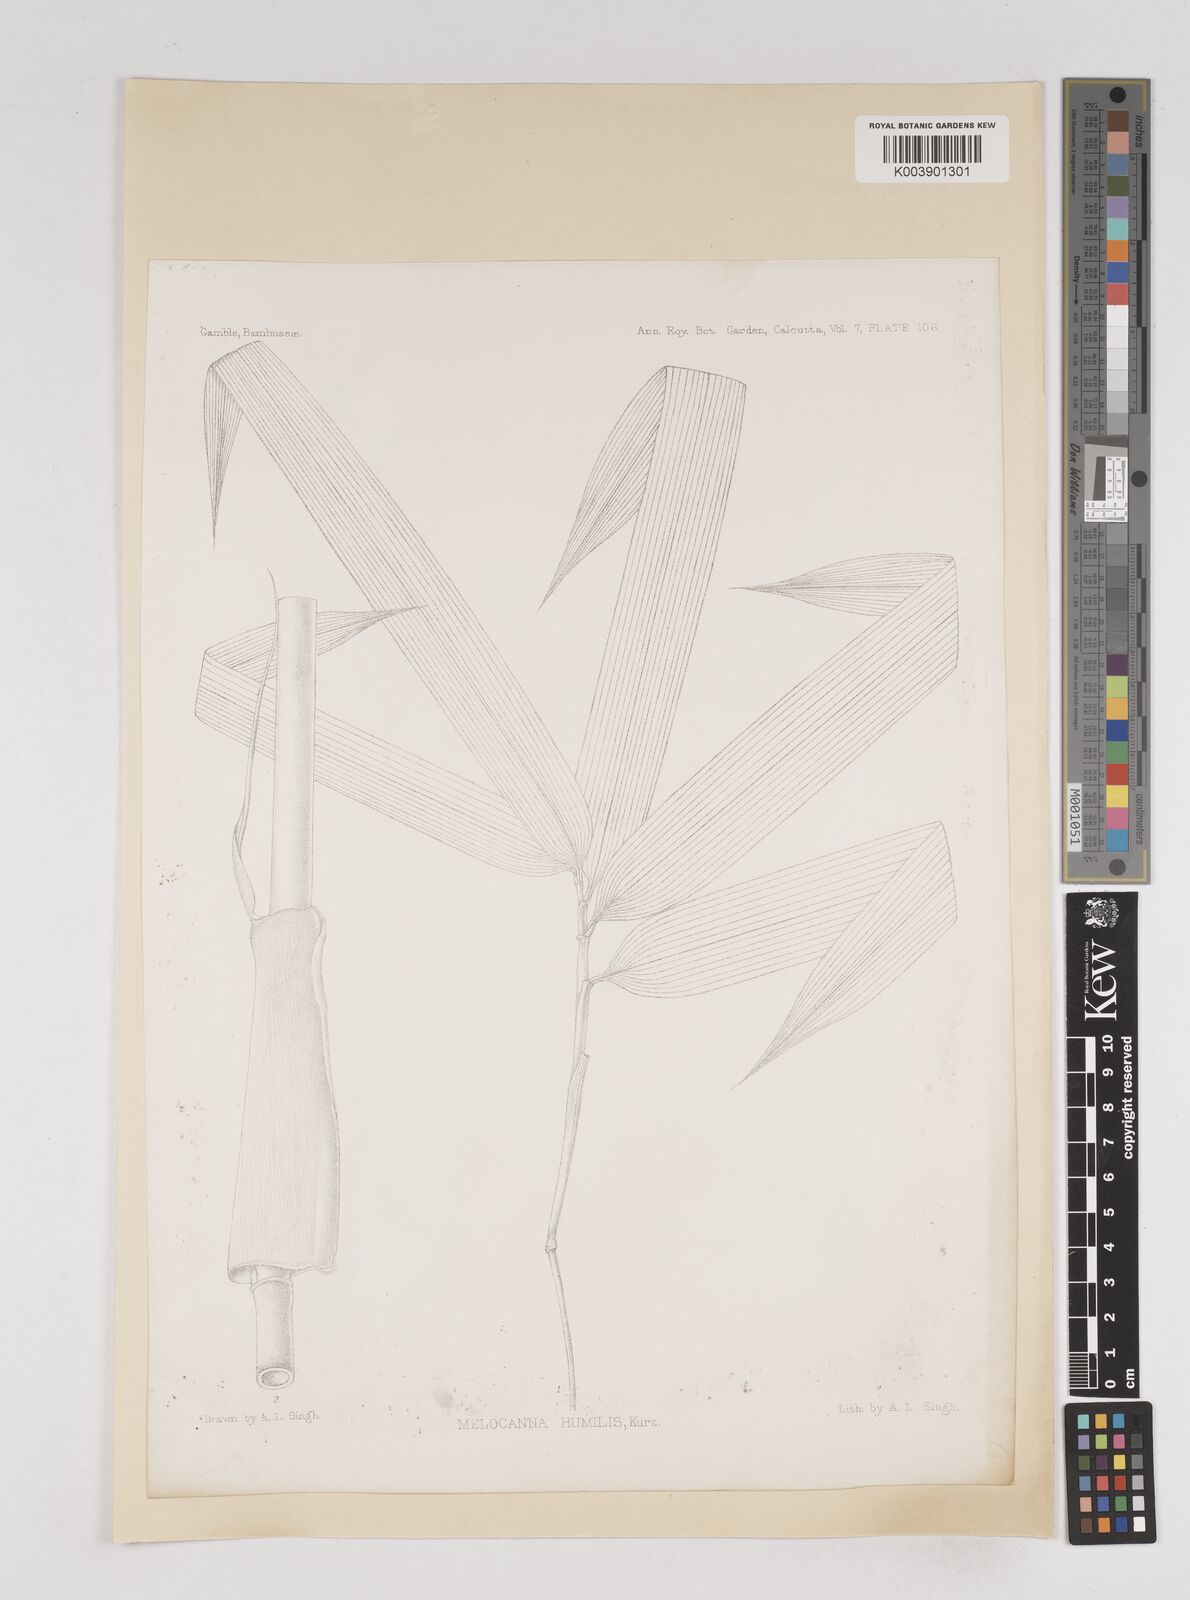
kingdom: Plantae
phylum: Tracheophyta
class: Liliopsida
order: Poales
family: Poaceae
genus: Melocanna
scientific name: Melocanna arundina
